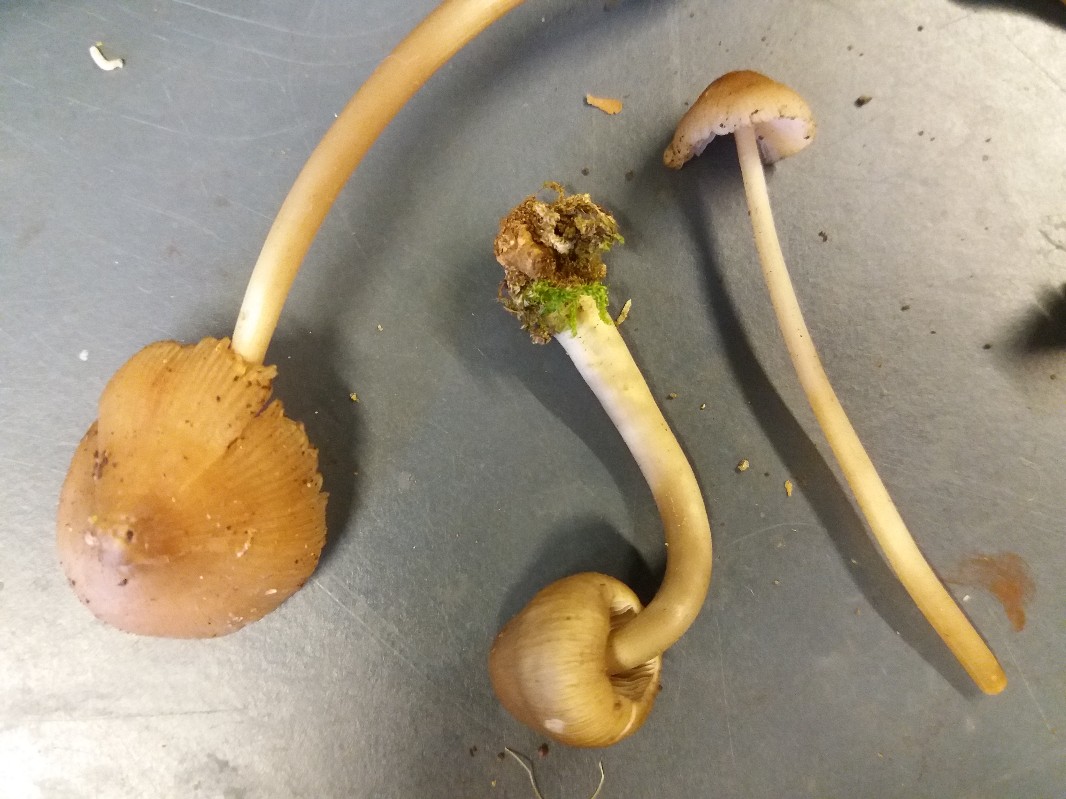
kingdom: Fungi
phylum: Basidiomycota
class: Agaricomycetes
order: Agaricales
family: Mycenaceae
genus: Mycena
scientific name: Mycena galericulata
